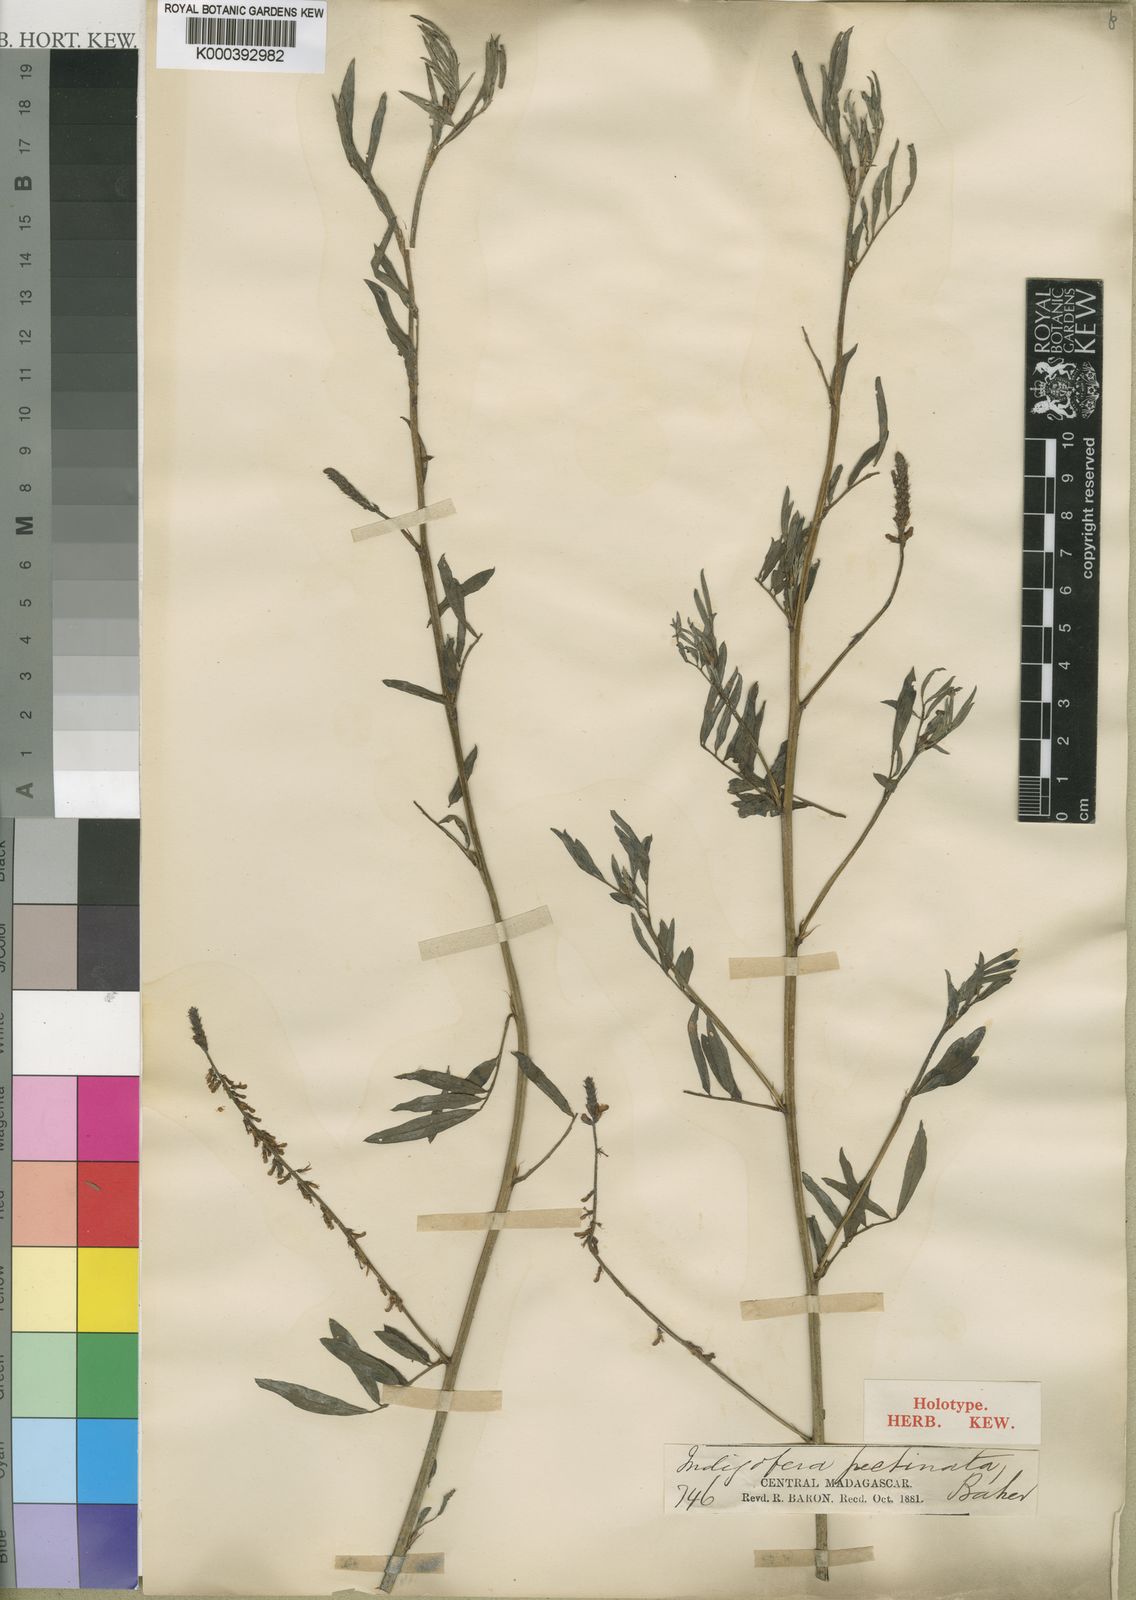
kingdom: Plantae
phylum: Tracheophyta
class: Magnoliopsida
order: Fabales
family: Fabaceae
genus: Indigofera
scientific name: Indigofera hendecaphylla
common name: Trailing indigo
